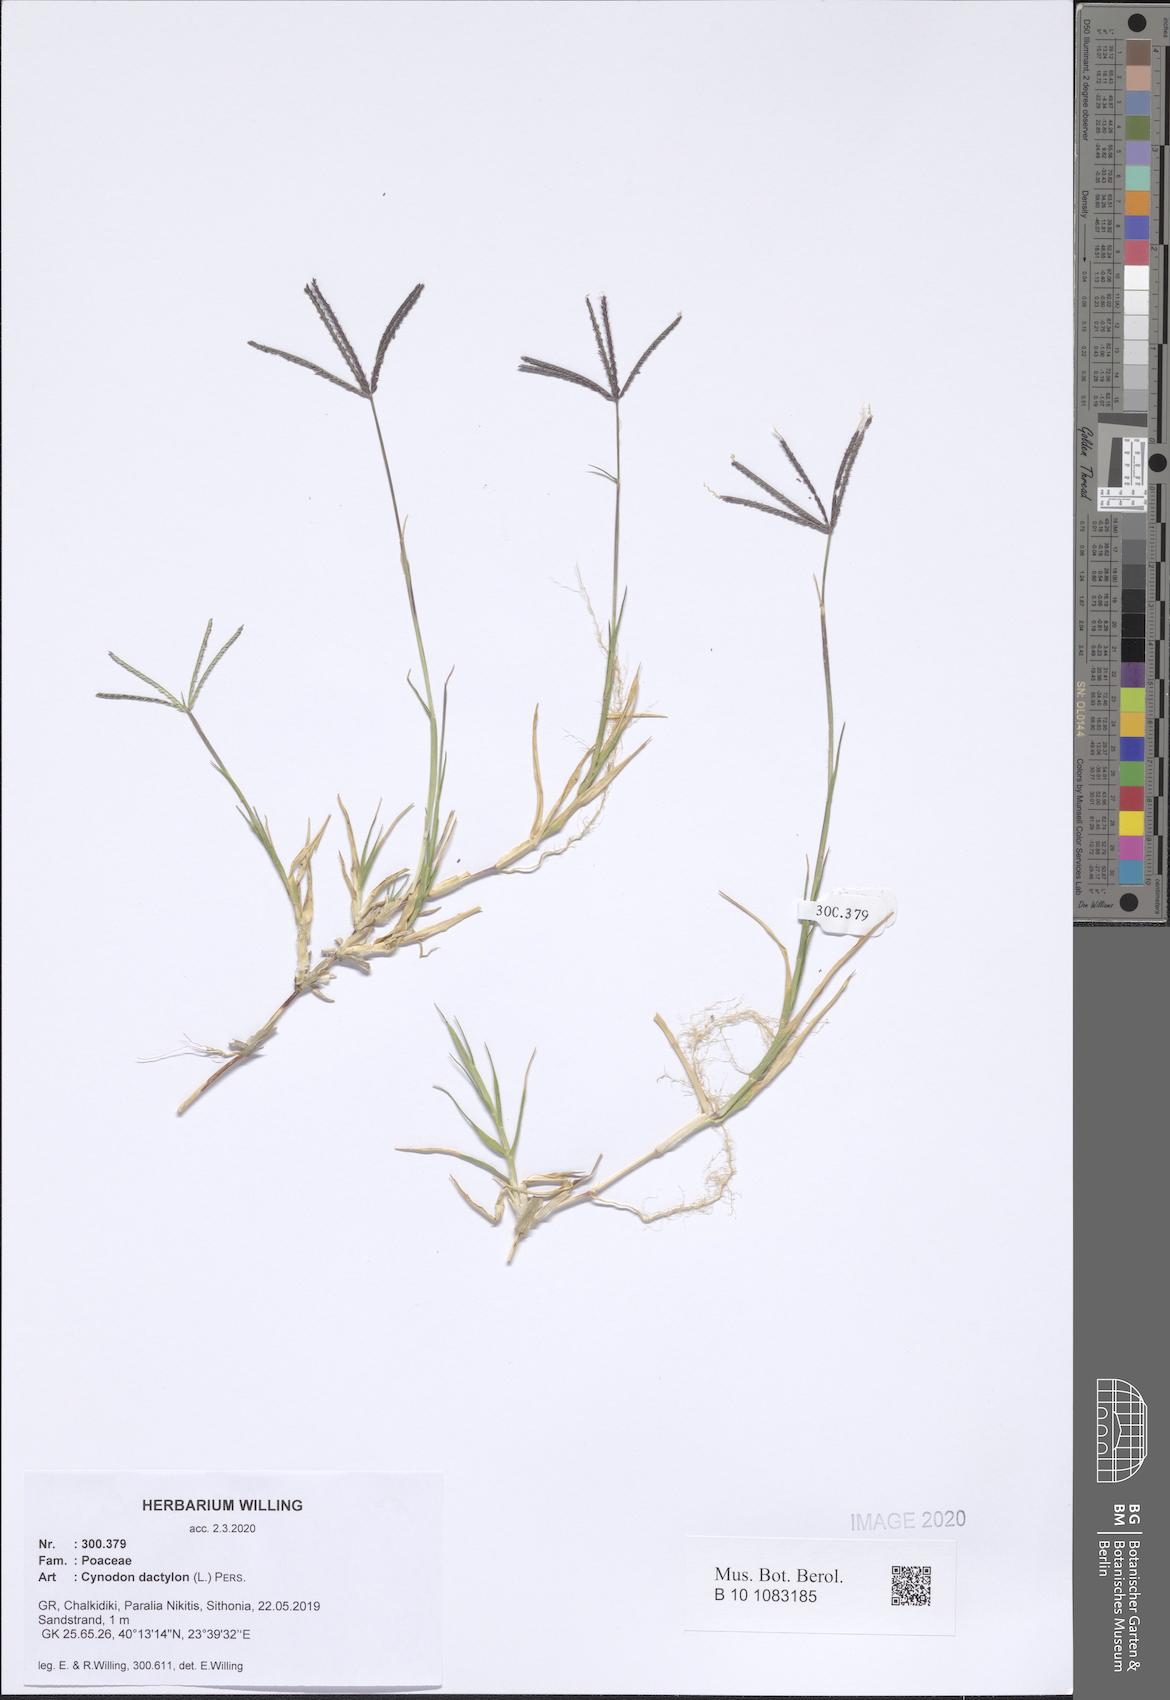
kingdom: Plantae
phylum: Tracheophyta
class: Liliopsida
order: Poales
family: Poaceae
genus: Cynodon
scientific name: Cynodon dactylon
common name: Bermuda grass
